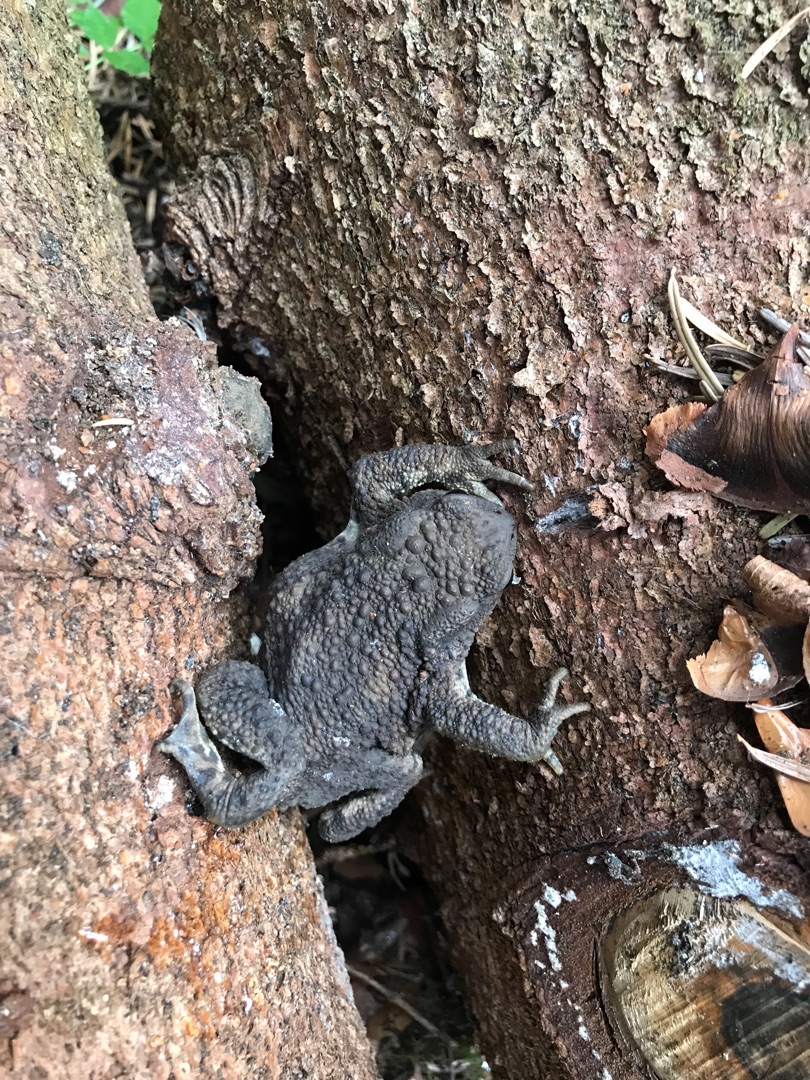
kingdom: Animalia
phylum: Chordata
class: Amphibia
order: Anura
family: Bufonidae
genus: Bufo
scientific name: Bufo bufo
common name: Skrubtudse
